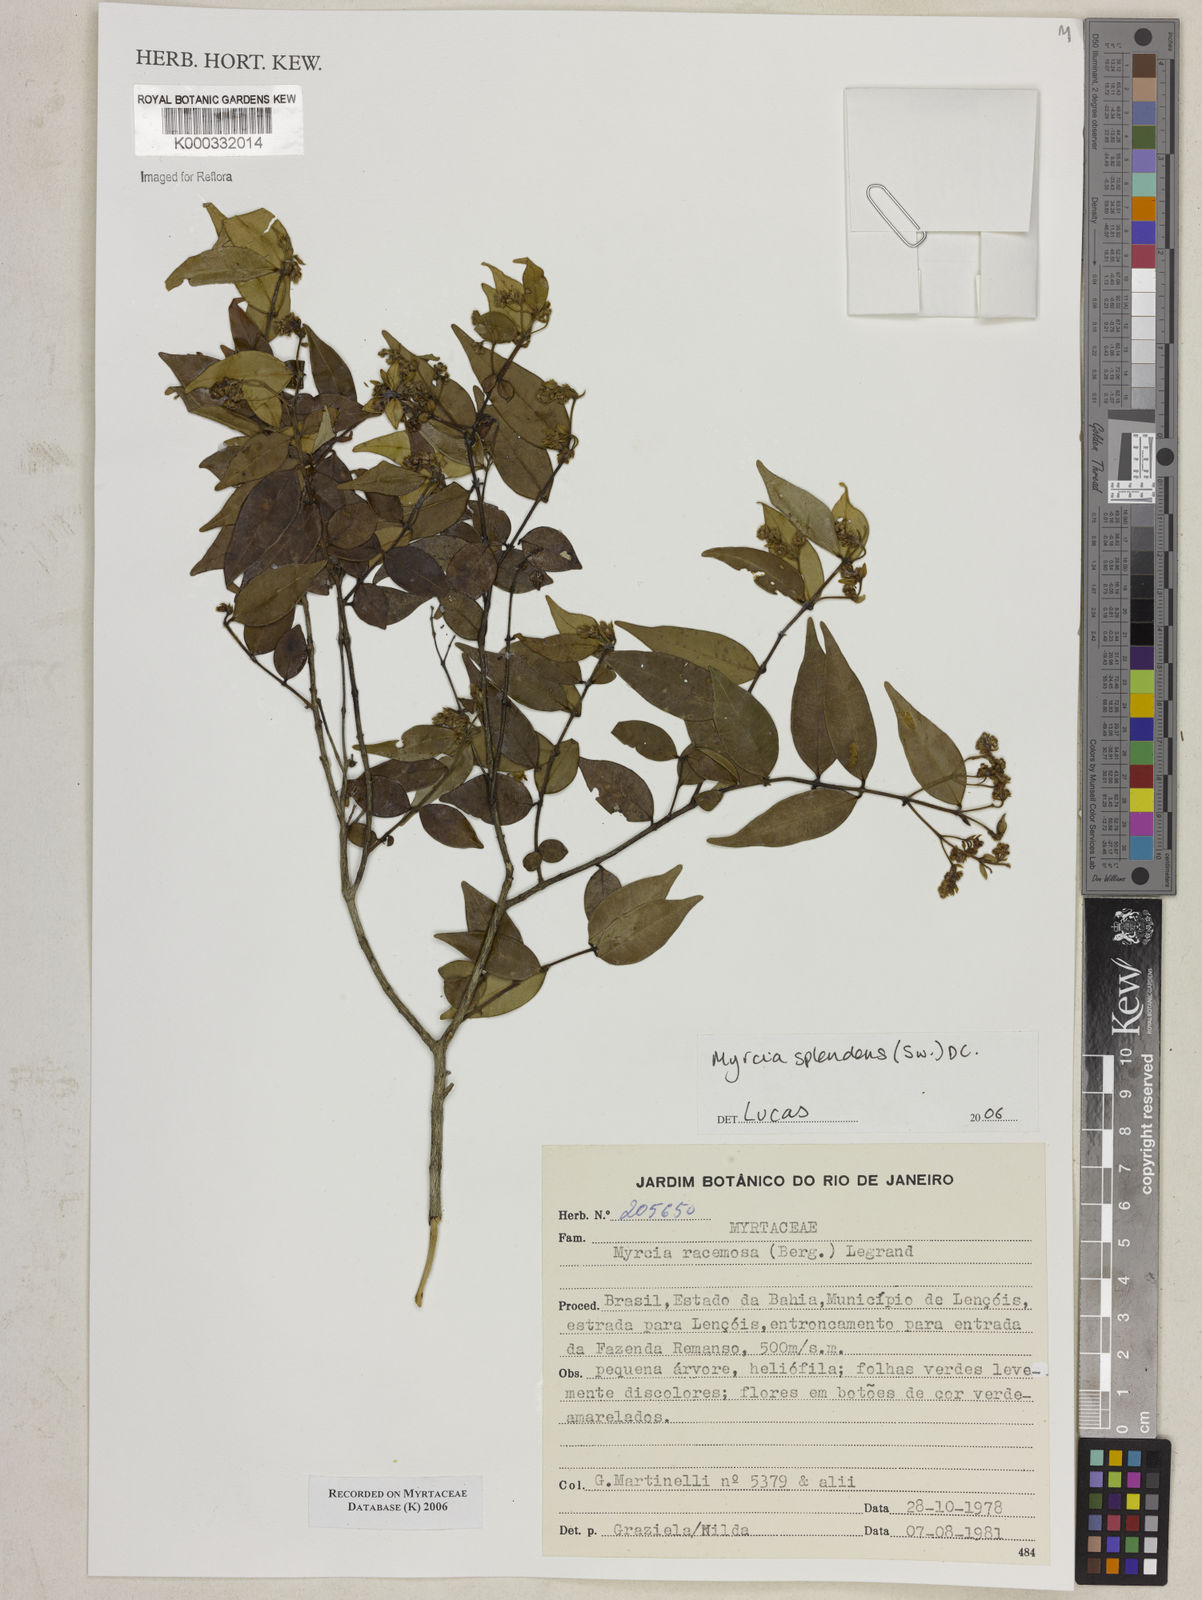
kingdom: Plantae
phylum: Tracheophyta
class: Magnoliopsida
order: Myrtales
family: Myrtaceae
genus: Myrcia
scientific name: Myrcia splendens
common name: Surinam cherry
